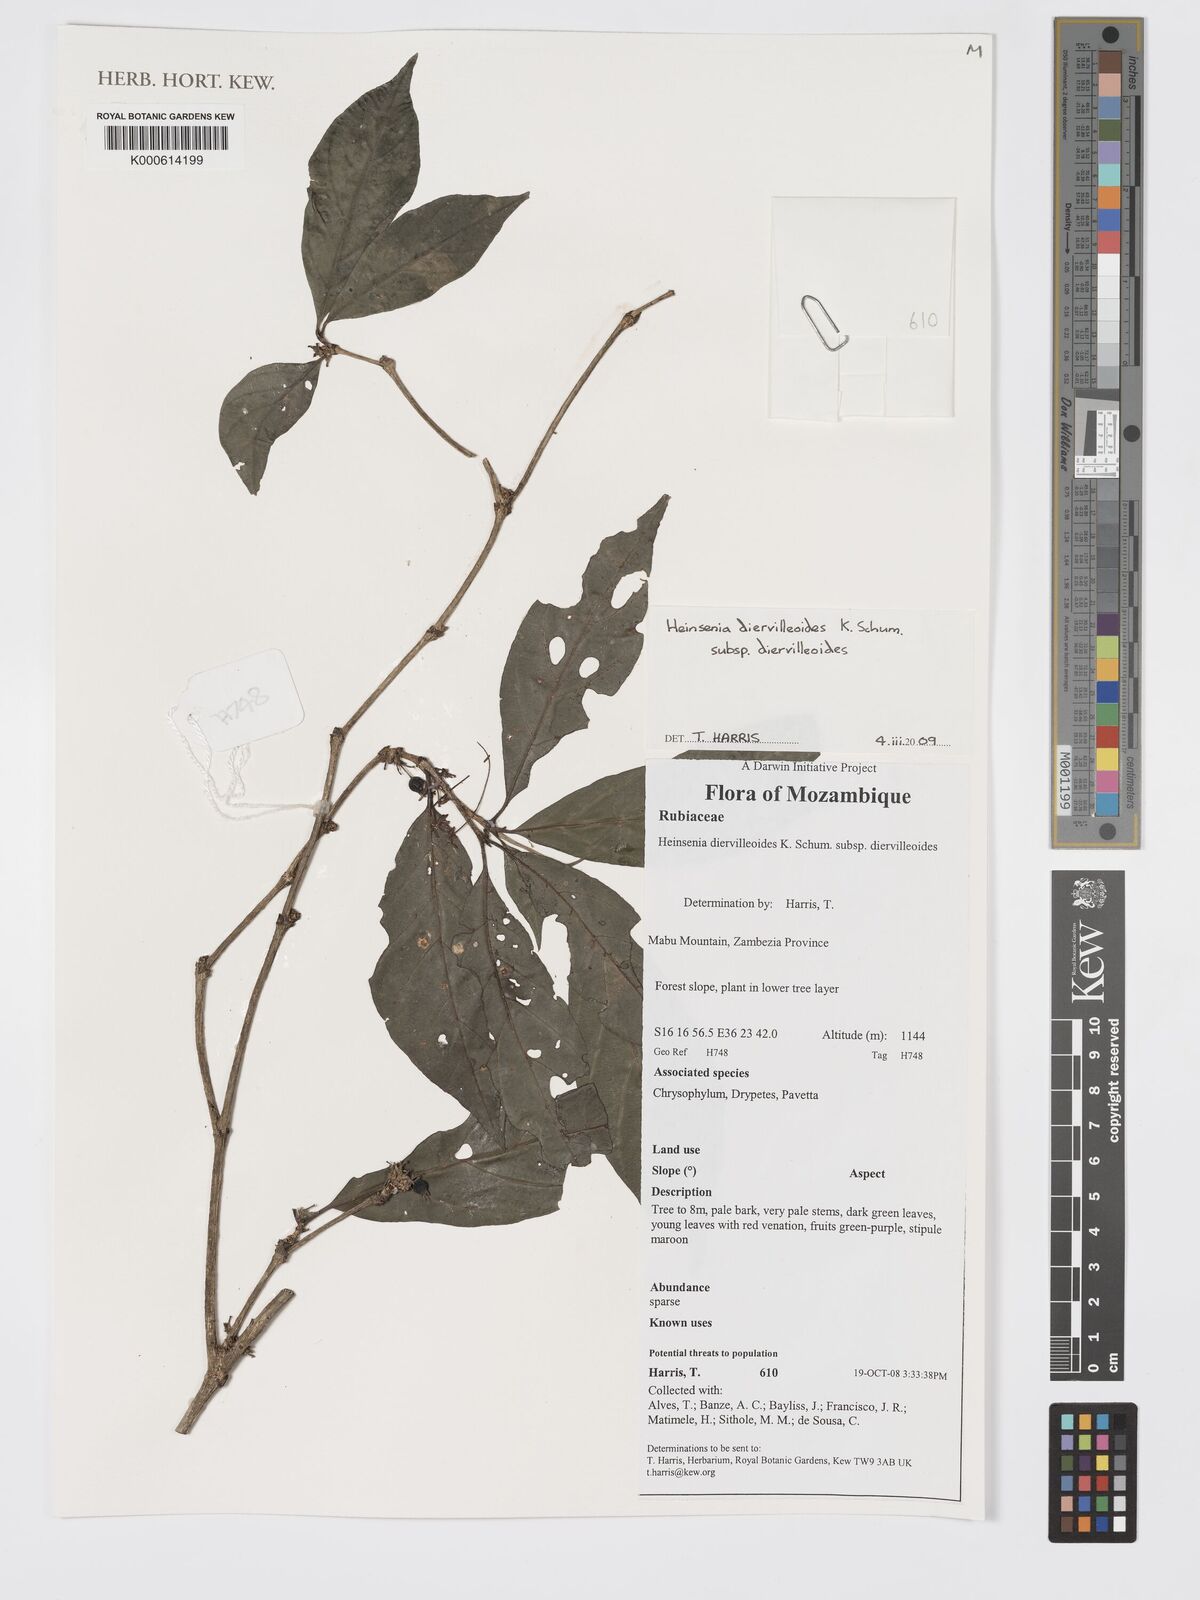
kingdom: Plantae
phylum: Tracheophyta
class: Magnoliopsida
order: Gentianales
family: Rubiaceae
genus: Heinsenia
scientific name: Heinsenia diervilleoides
